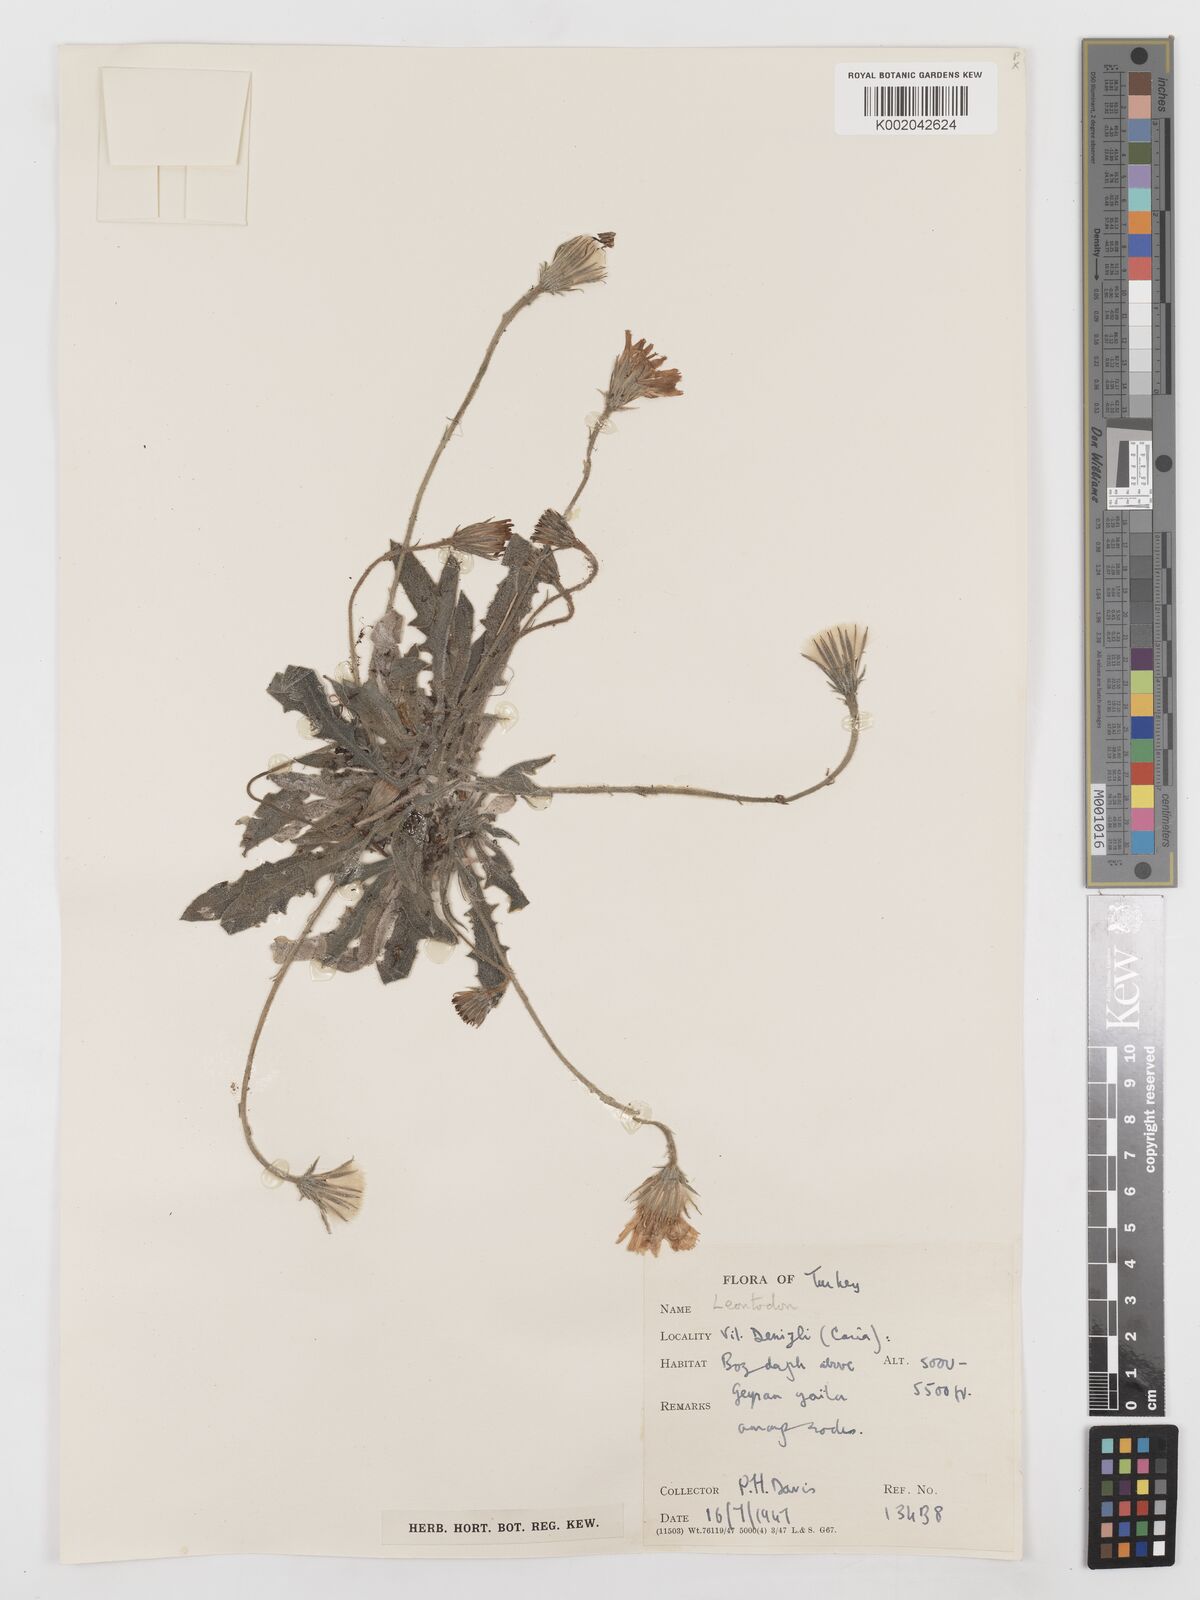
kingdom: Plantae
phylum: Tracheophyta
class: Magnoliopsida
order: Asterales
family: Asteraceae
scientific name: Asteraceae
